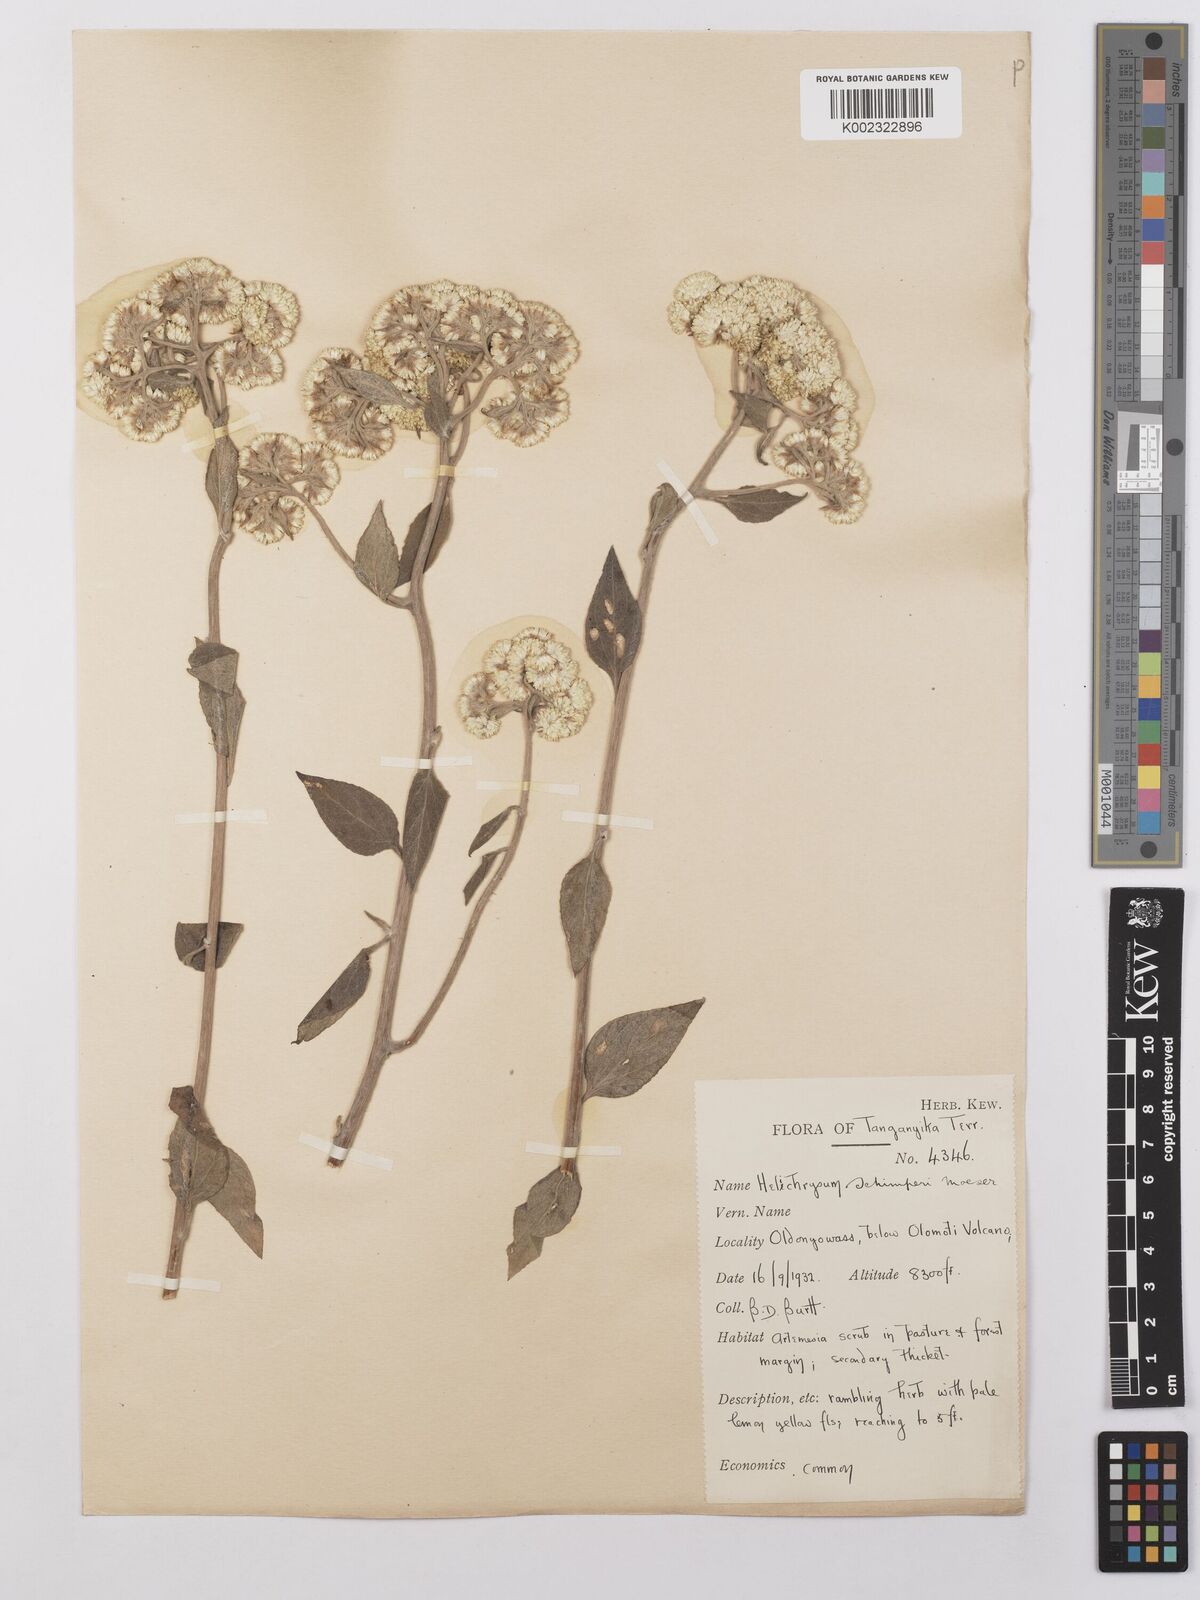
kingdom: Plantae
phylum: Tracheophyta
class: Magnoliopsida
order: Asterales
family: Asteraceae
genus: Helichrysum
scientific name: Helichrysum schimperi
